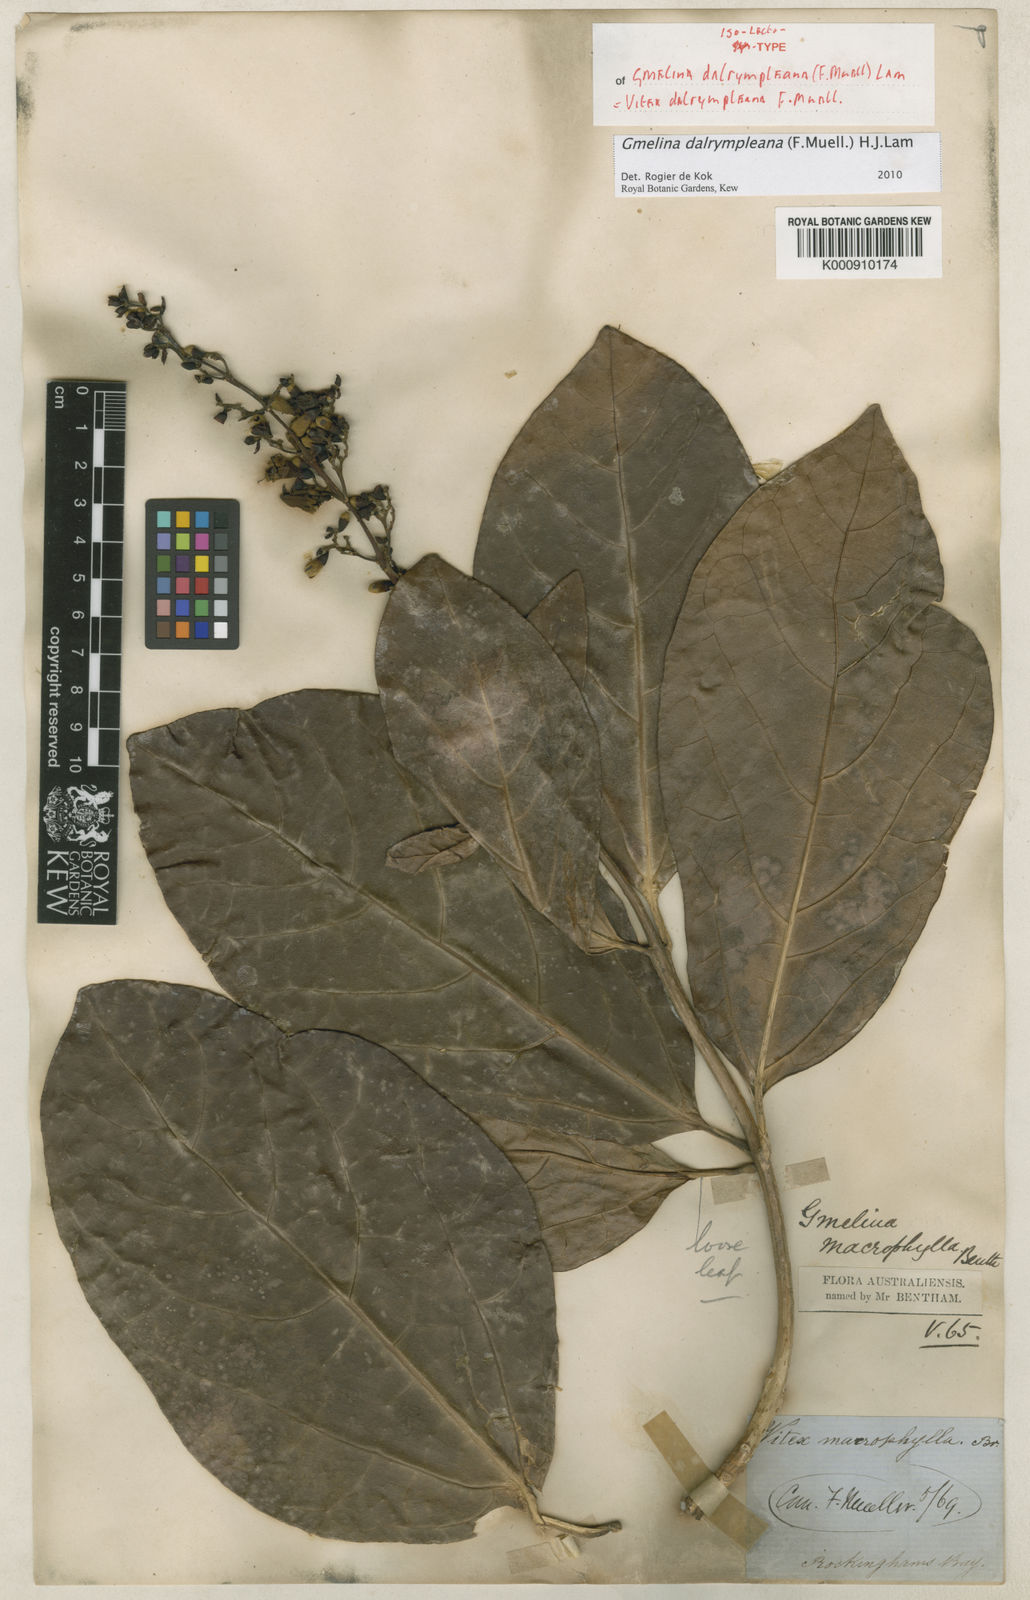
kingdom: Plantae
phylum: Tracheophyta
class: Magnoliopsida
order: Lamiales
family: Lamiaceae
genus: Gmelina
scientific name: Gmelina dalrympleana
